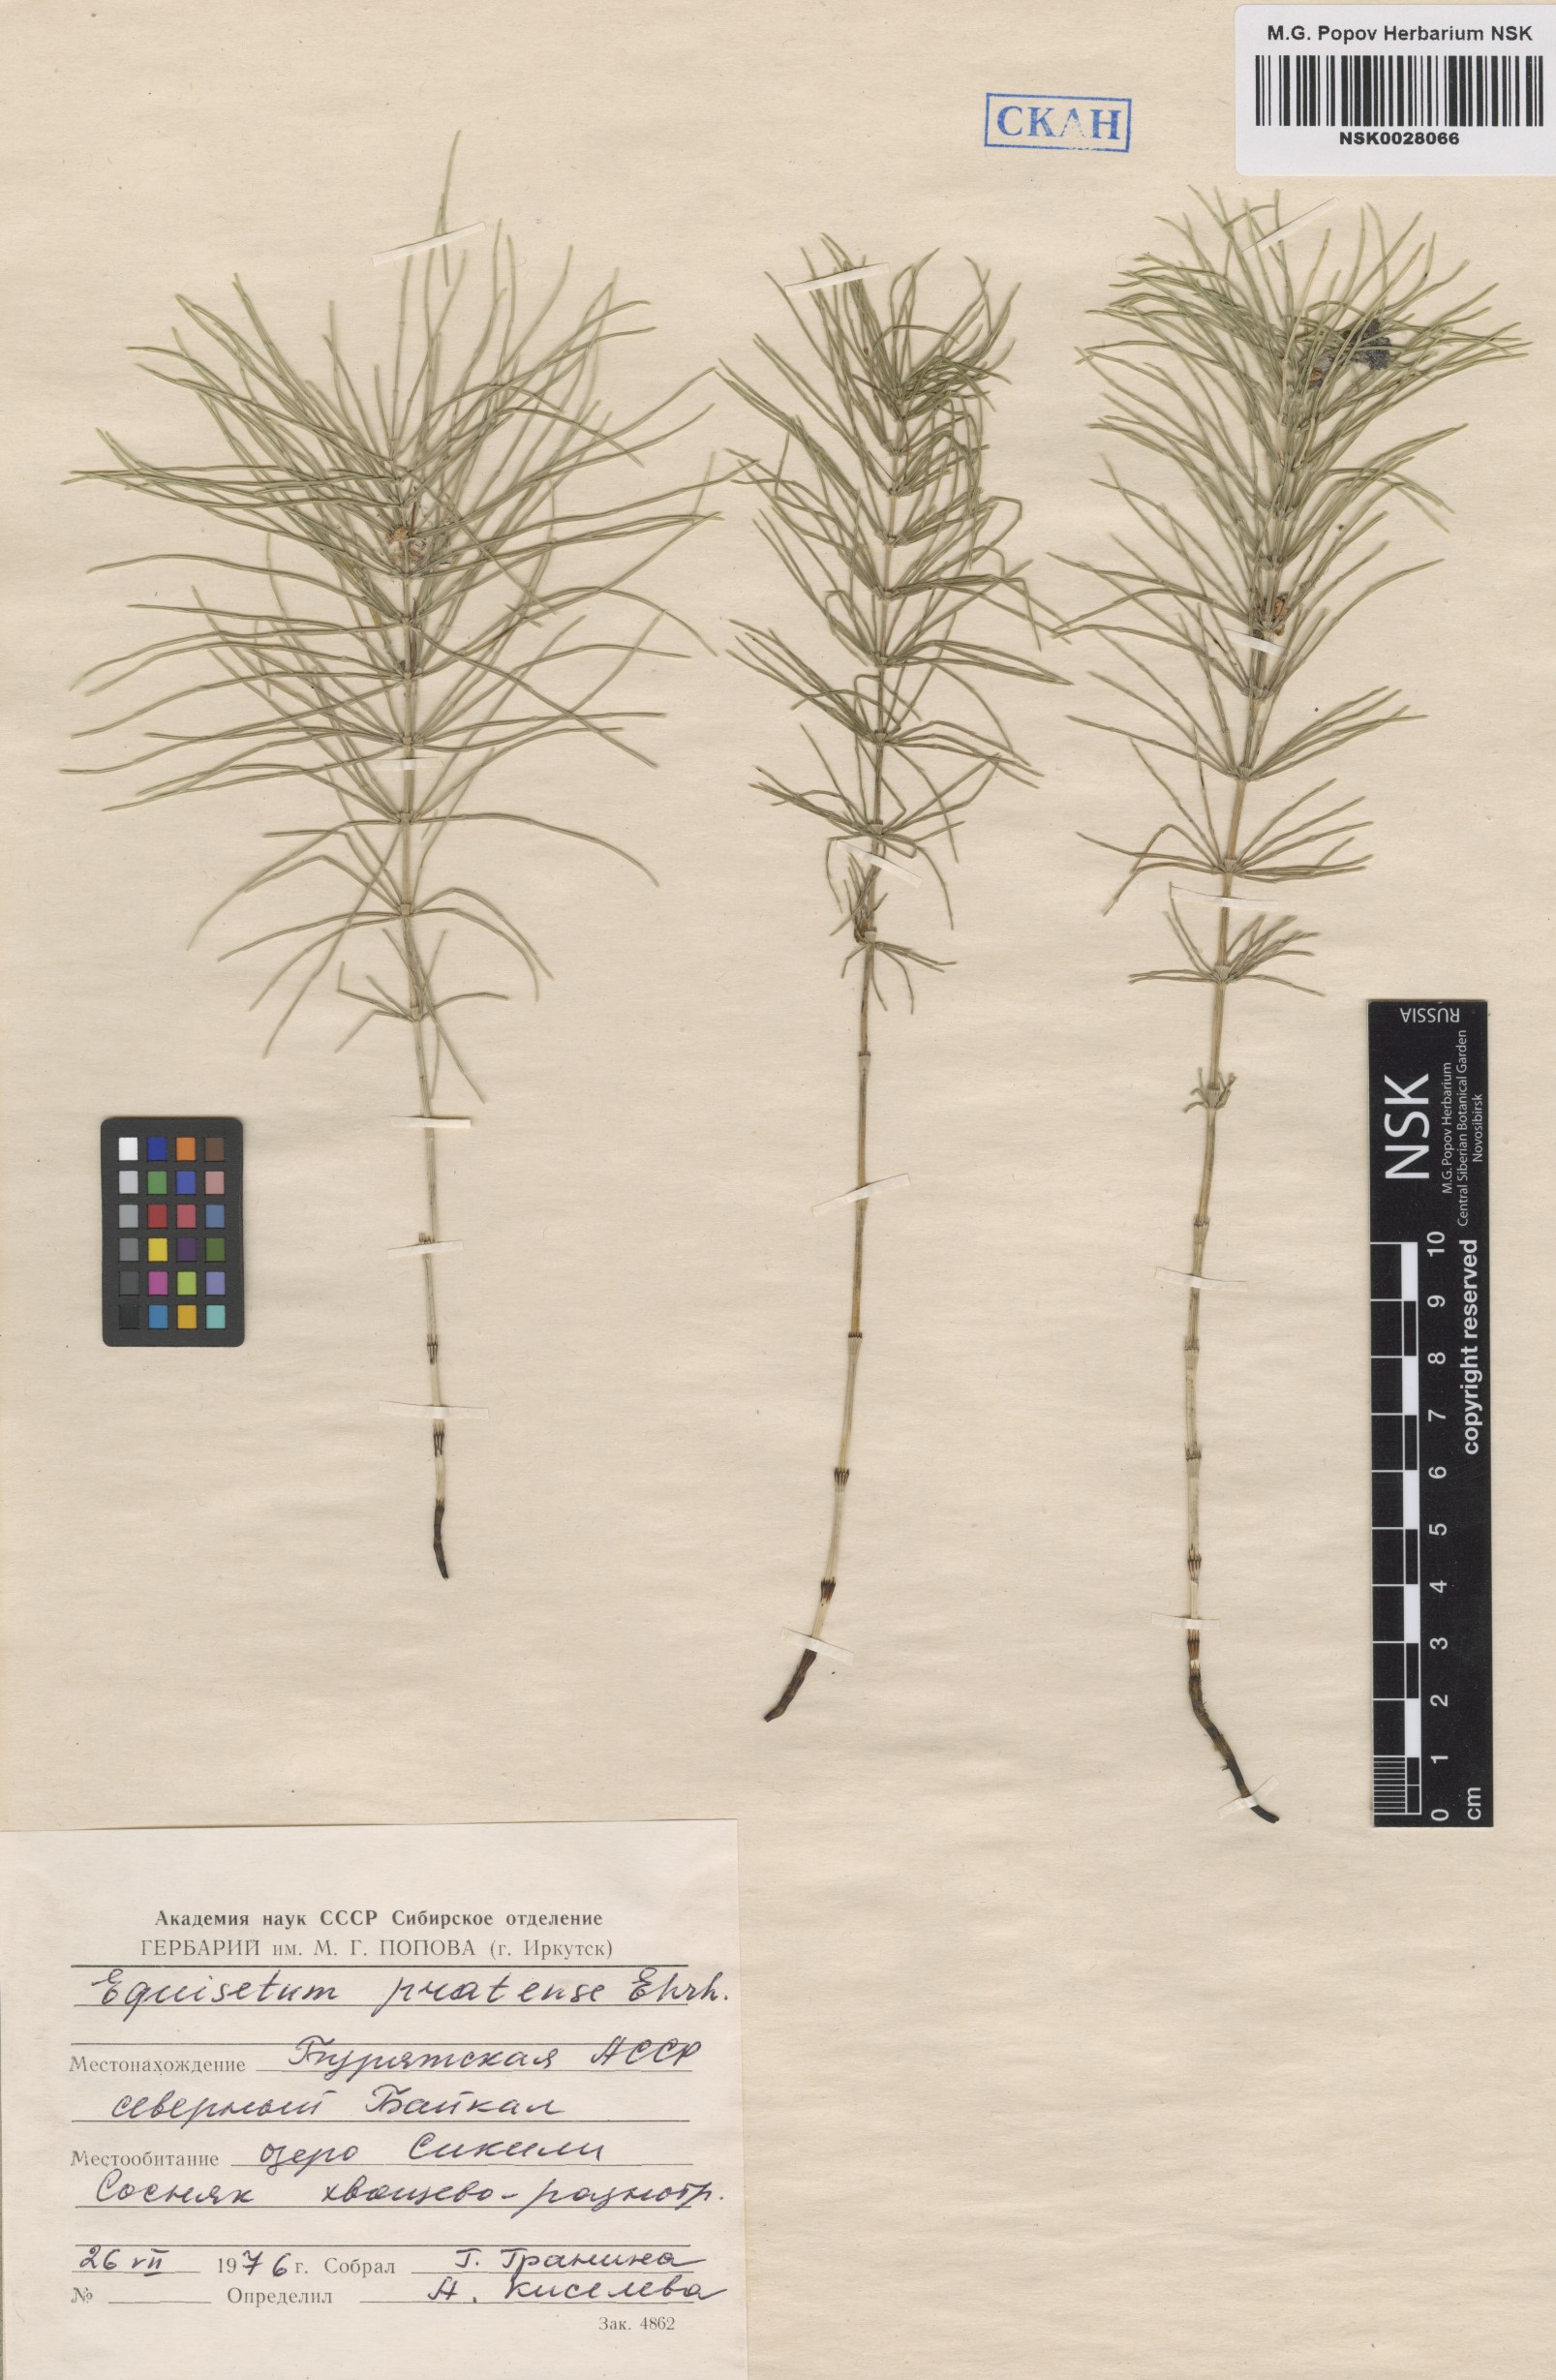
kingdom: Plantae
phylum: Tracheophyta
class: Polypodiopsida
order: Equisetales
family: Equisetaceae
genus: Equisetum
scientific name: Equisetum pratense
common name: Meadow horsetail
